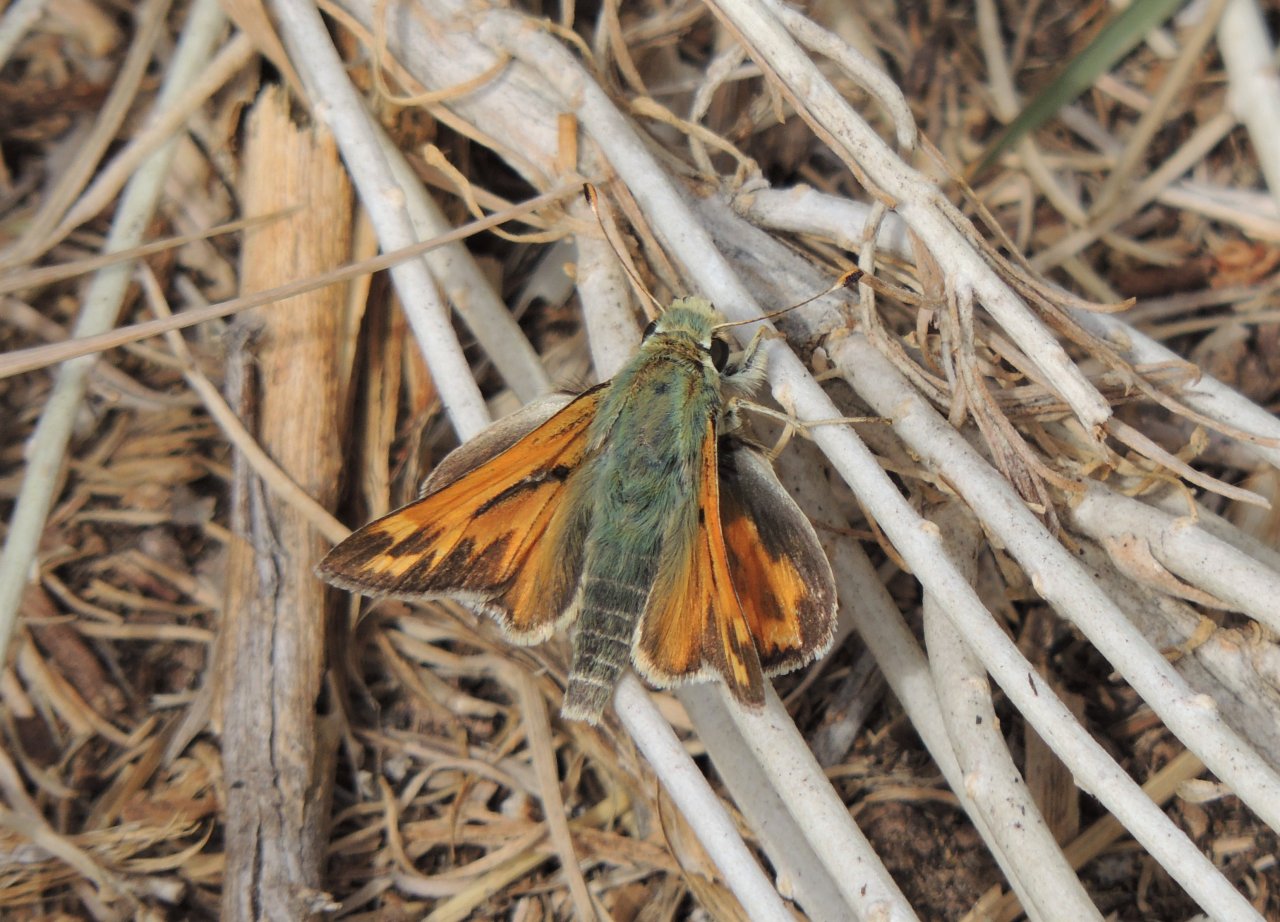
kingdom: Animalia
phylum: Arthropoda
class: Insecta
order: Lepidoptera
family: Hesperiidae
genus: Hesperia
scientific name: Hesperia juba
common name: Juba Skipper
